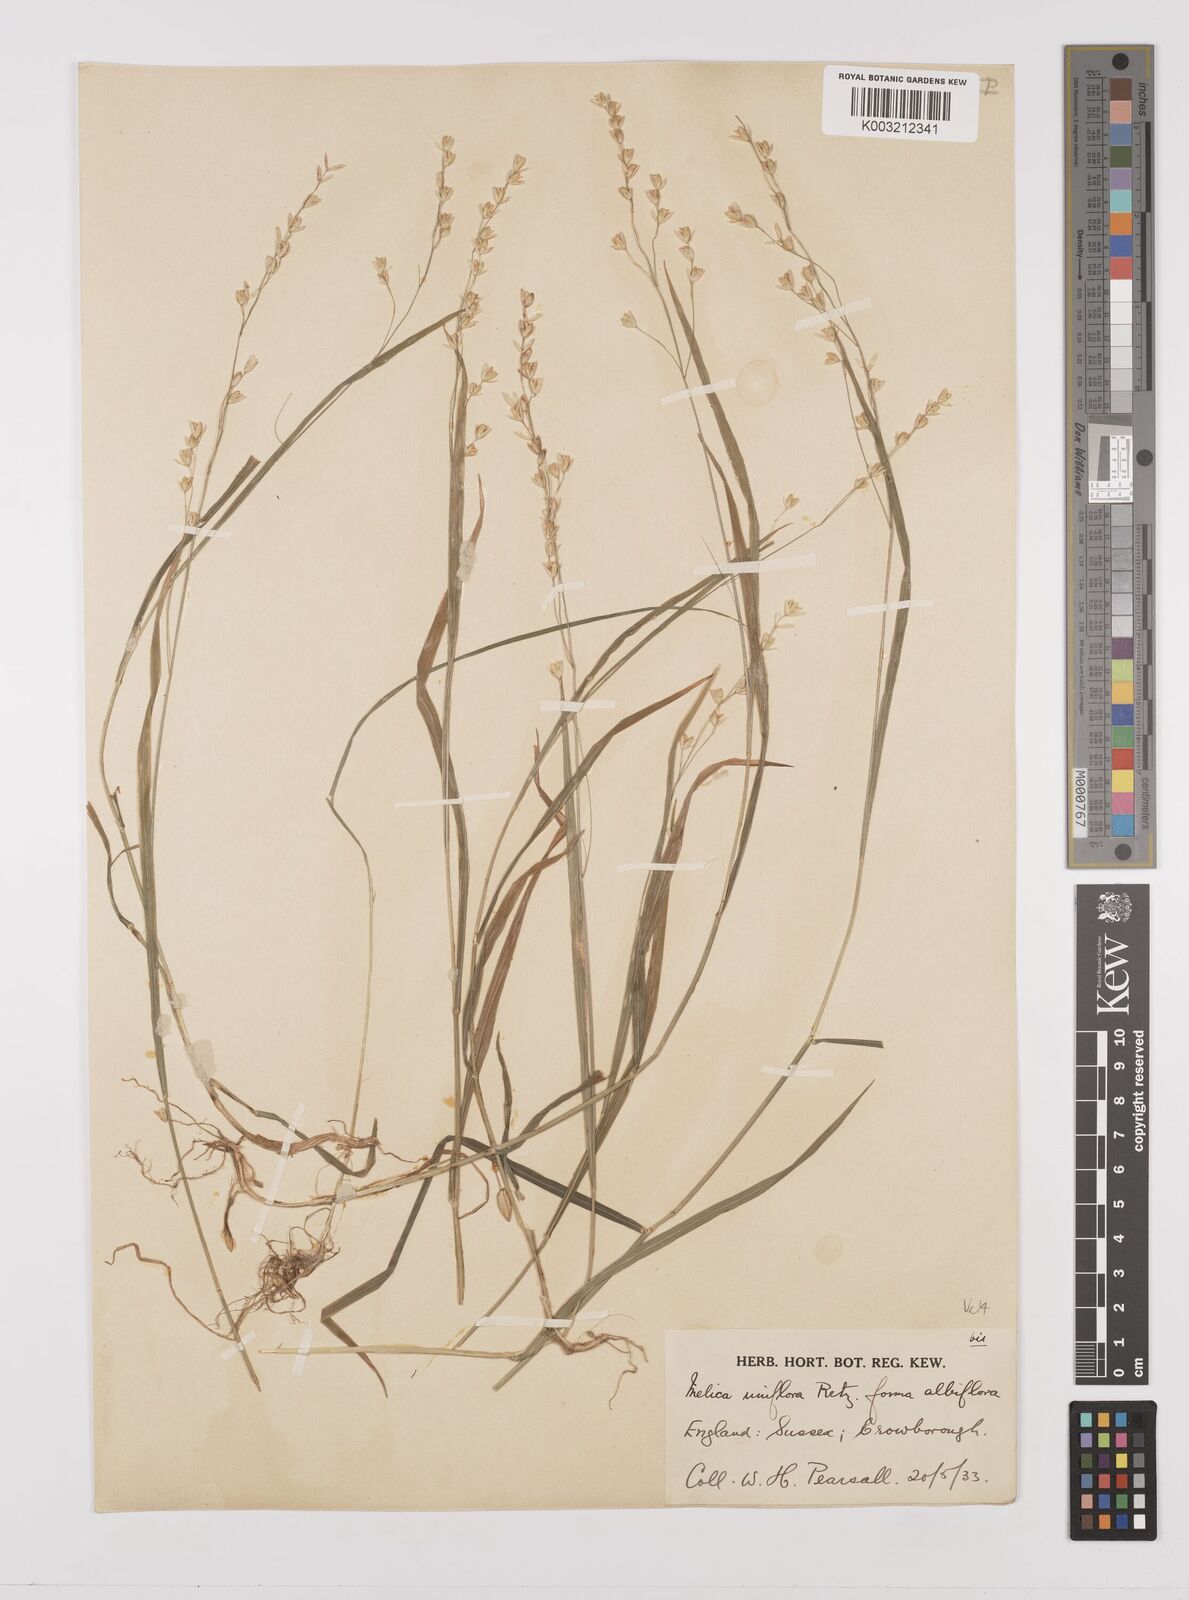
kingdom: Plantae
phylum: Tracheophyta
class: Liliopsida
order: Poales
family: Poaceae
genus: Melica
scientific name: Melica uniflora
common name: Wood melick
